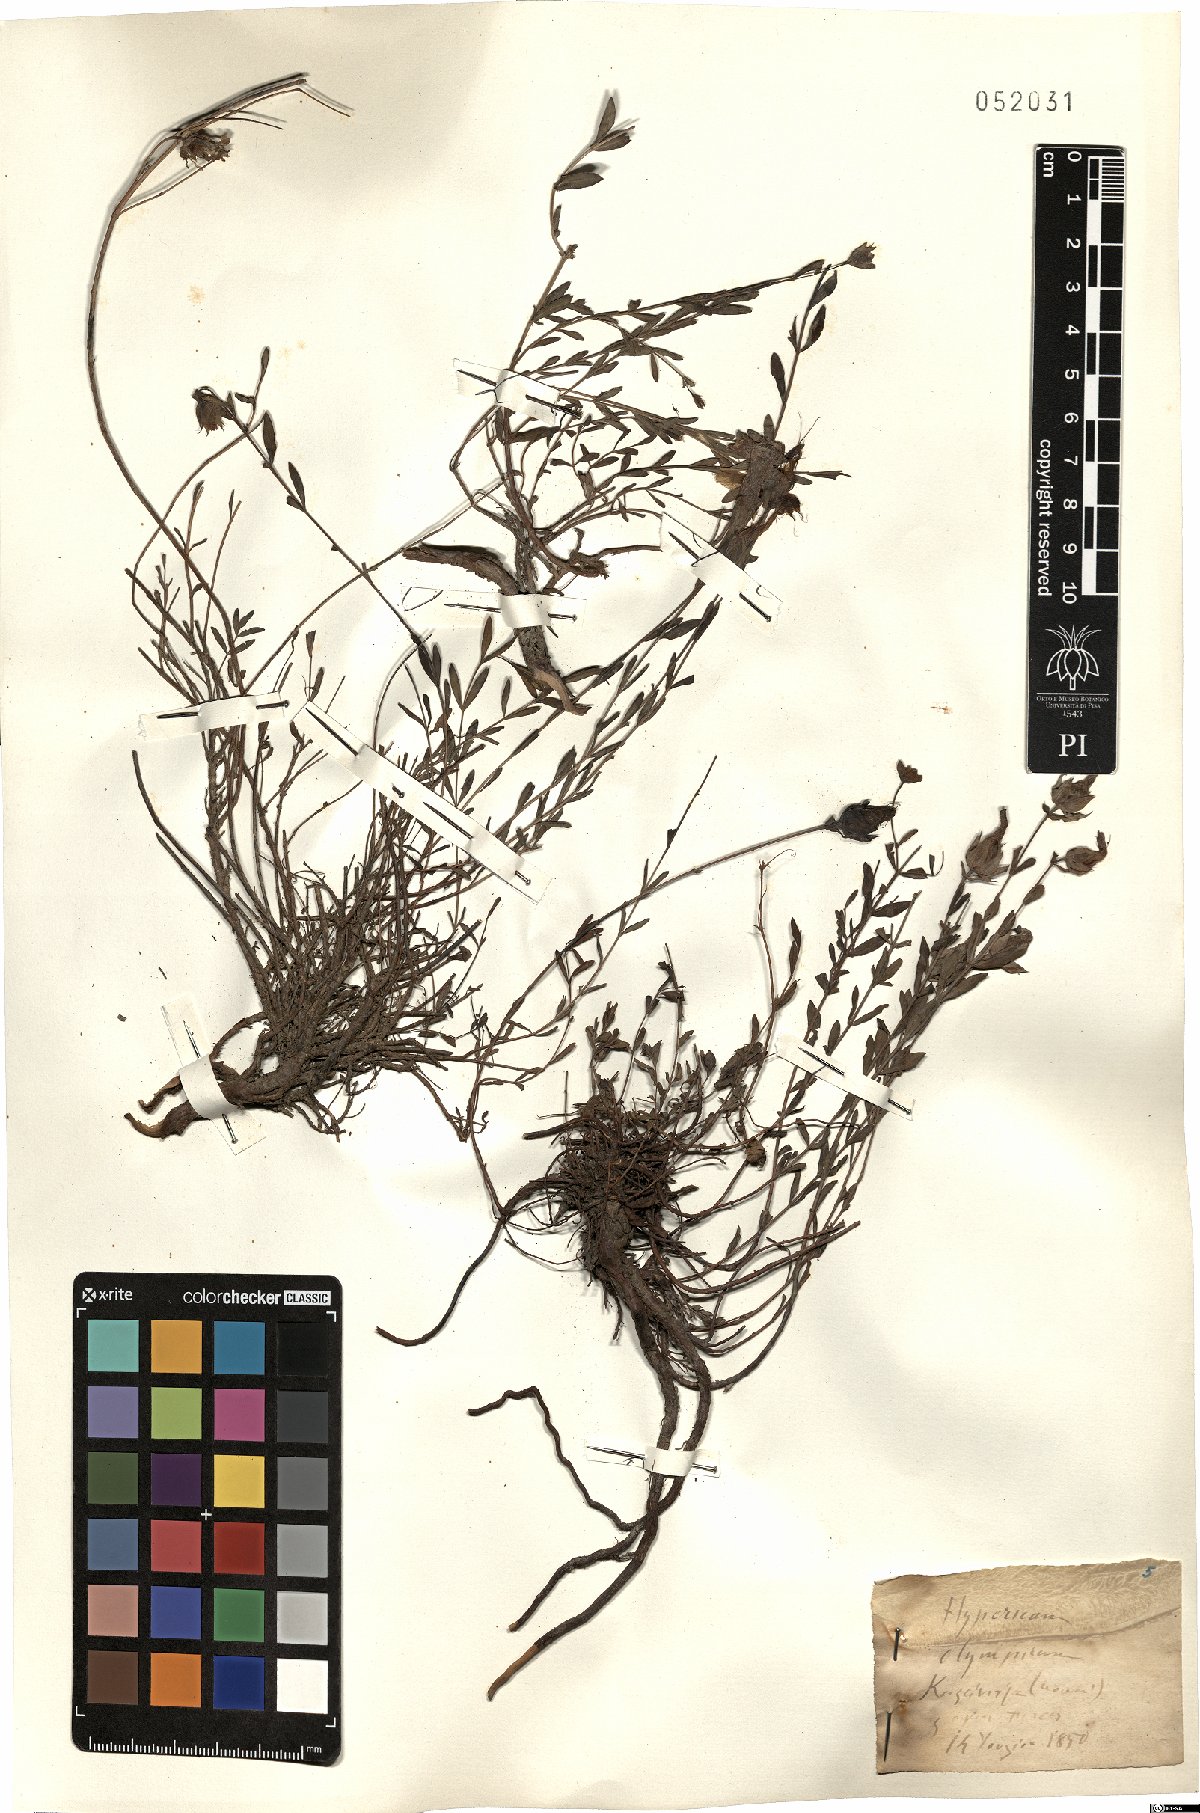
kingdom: Plantae
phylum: Tracheophyta
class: Magnoliopsida
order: Malpighiales
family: Hypericaceae
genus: Hypericum
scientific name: Hypericum olympicum
